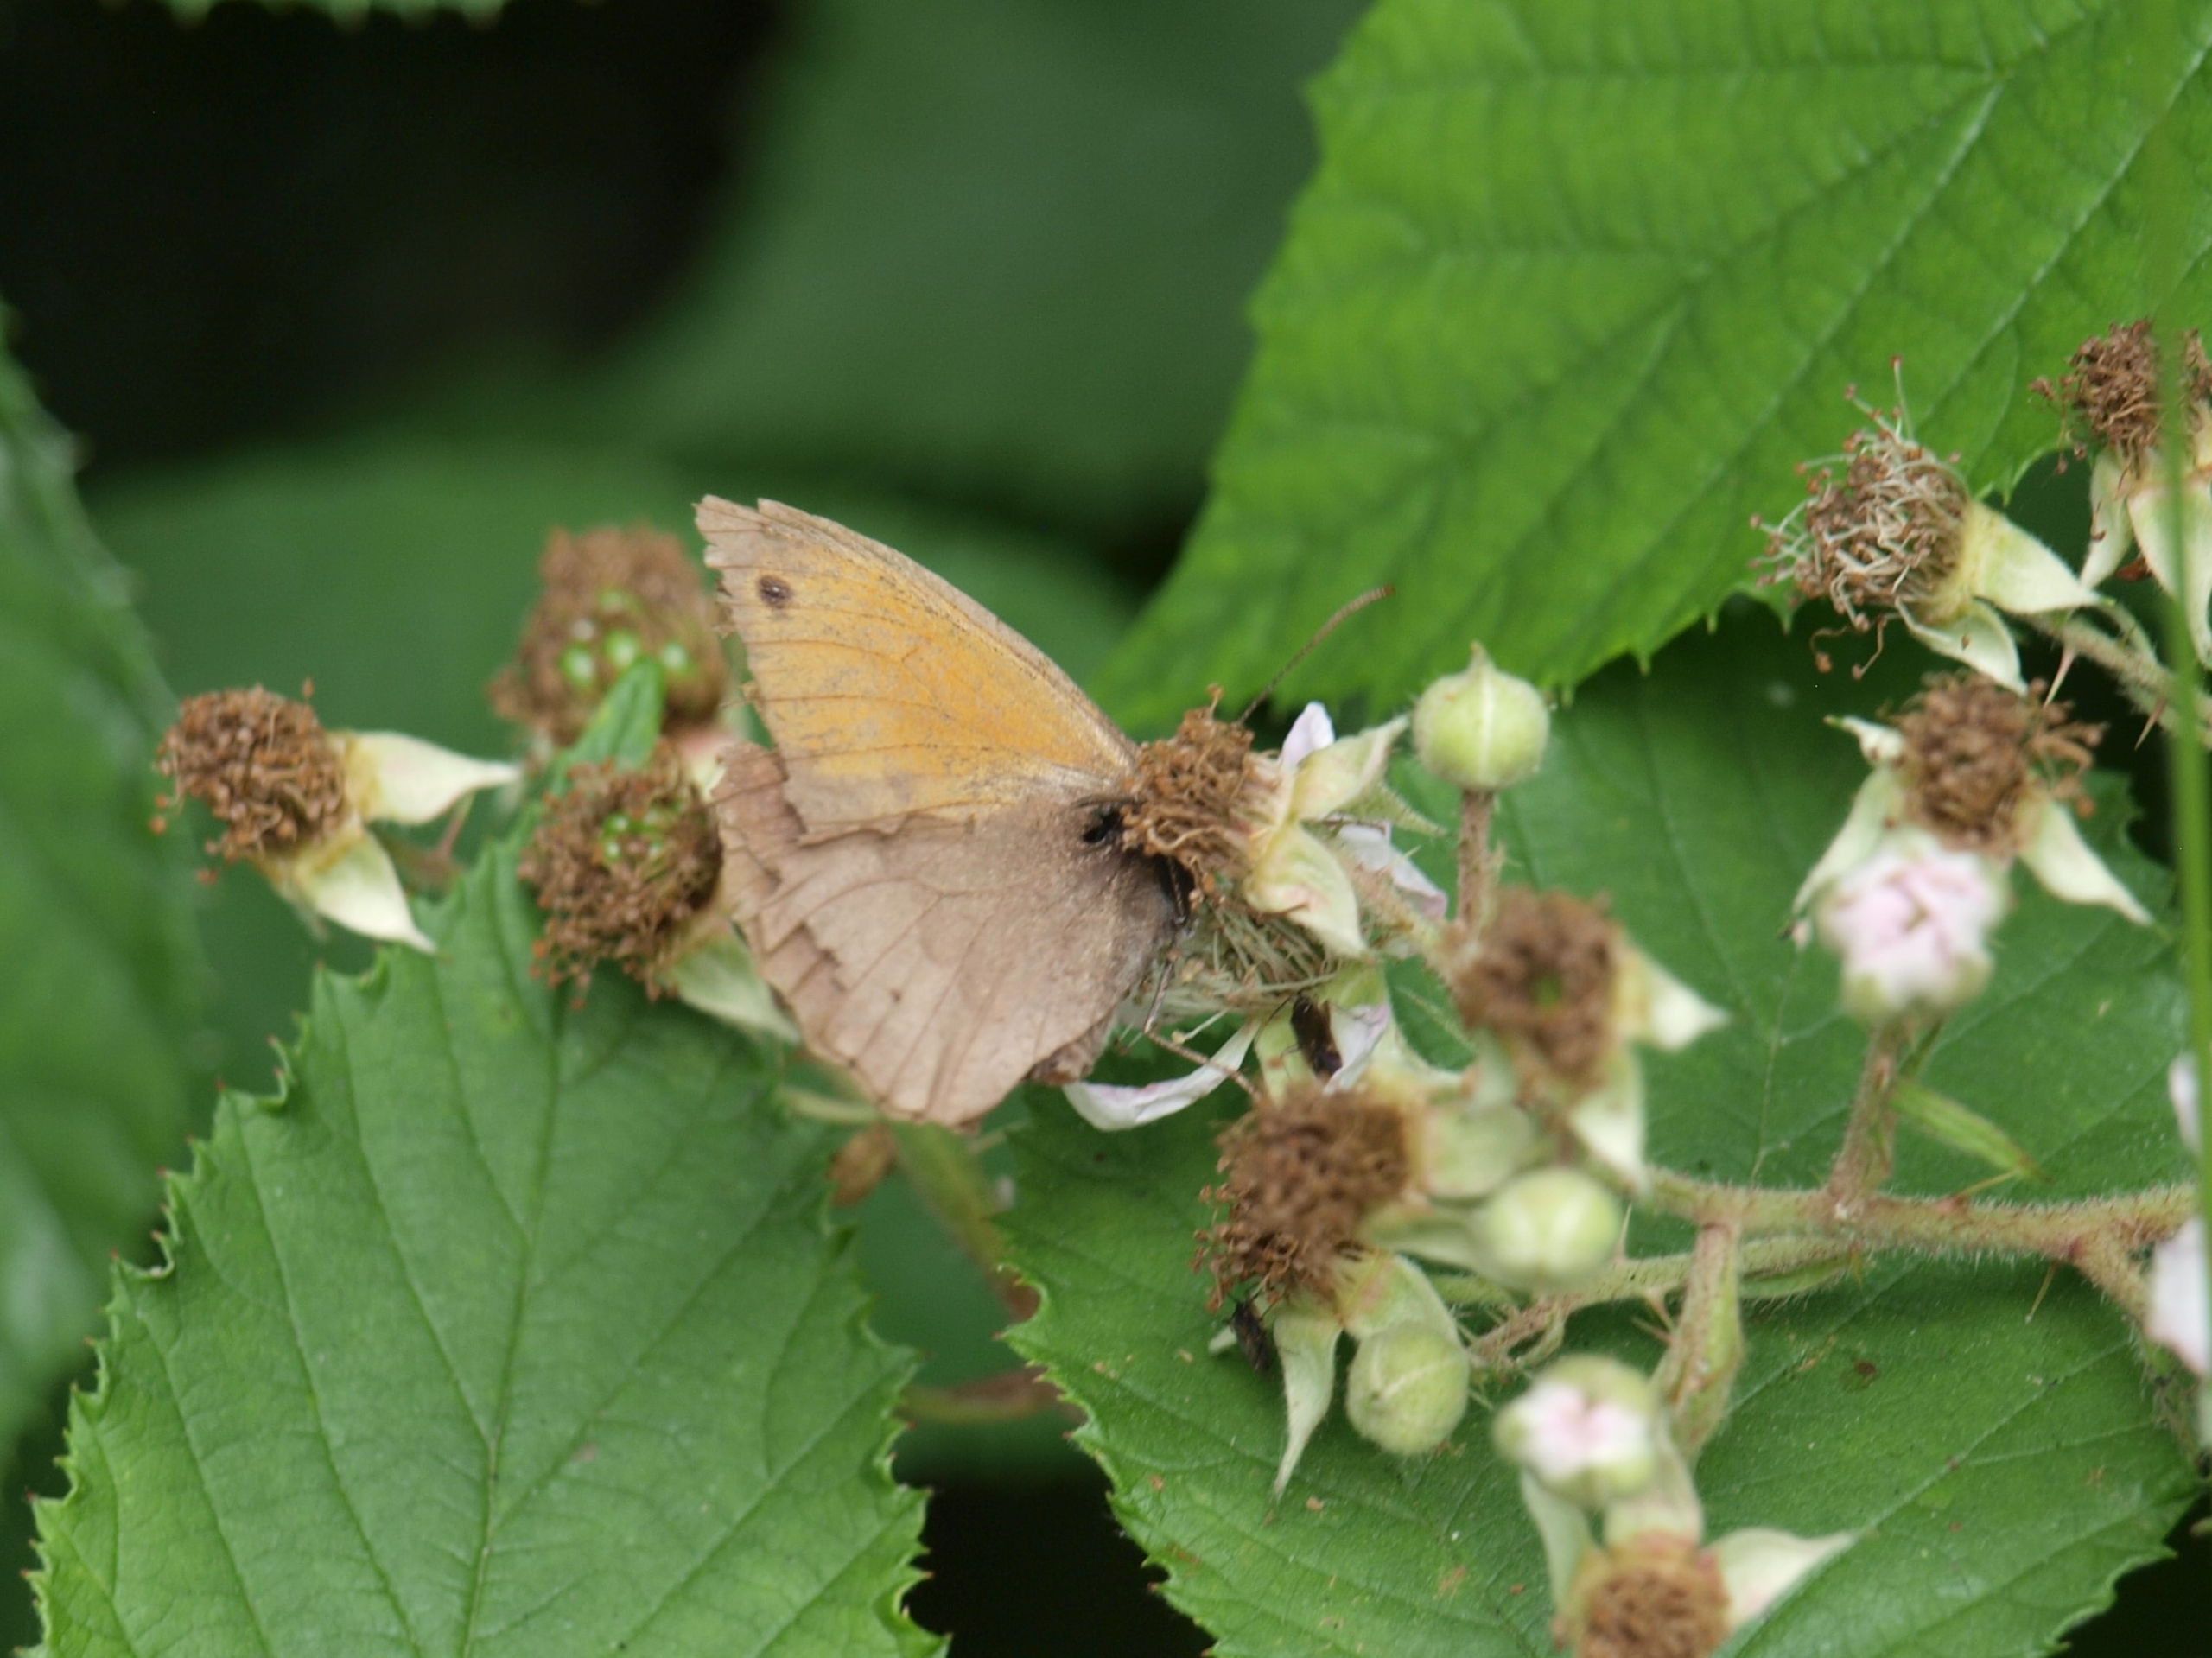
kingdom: Animalia
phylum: Arthropoda
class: Insecta
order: Lepidoptera
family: Nymphalidae
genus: Maniola
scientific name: Maniola jurtina
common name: Græsrandøje
